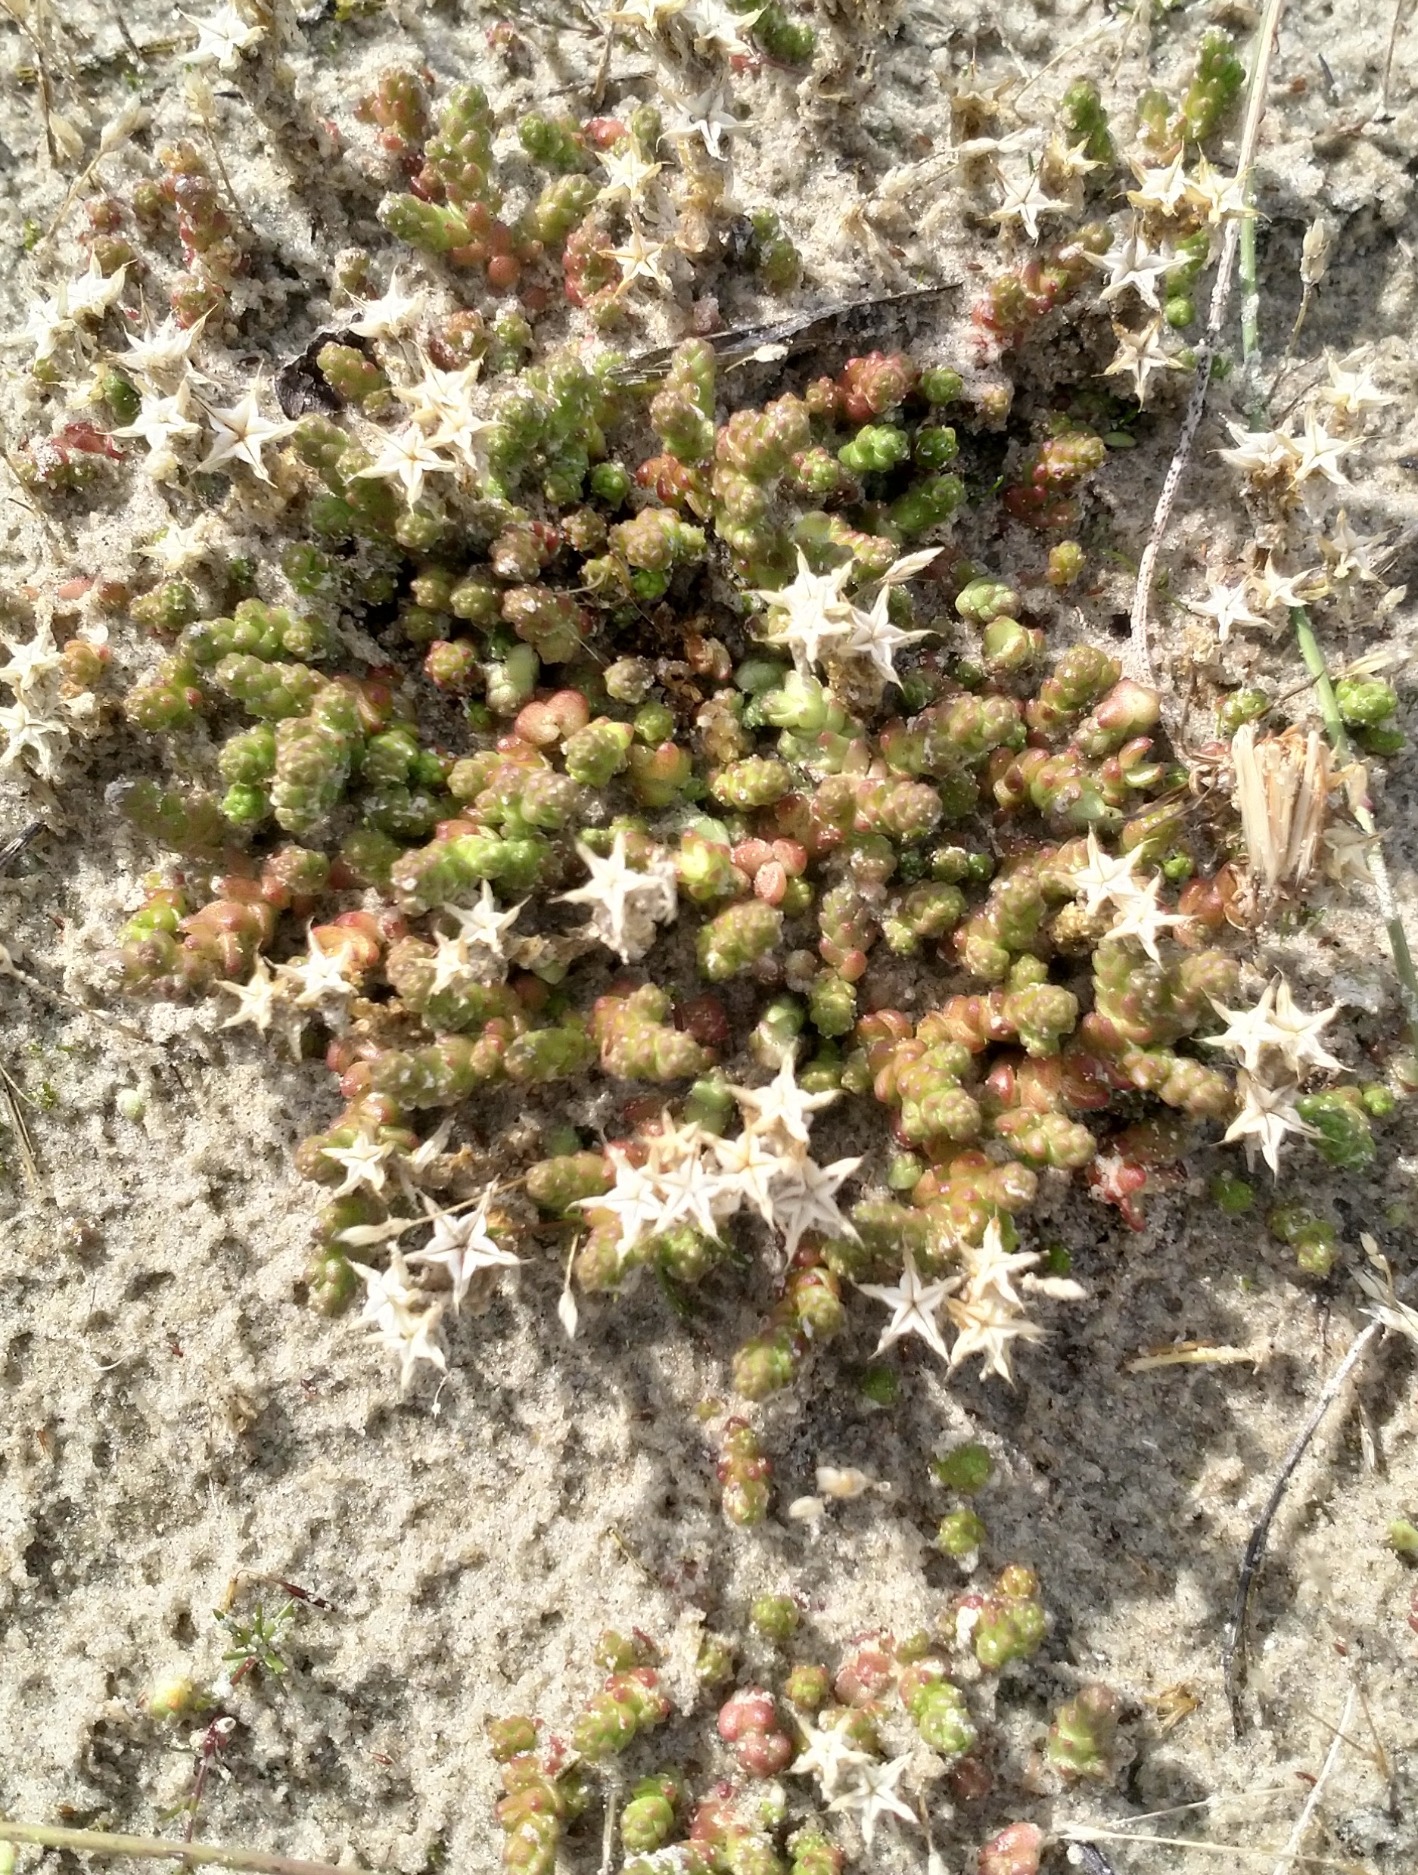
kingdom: Plantae
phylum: Tracheophyta
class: Magnoliopsida
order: Saxifragales
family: Crassulaceae
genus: Sedum
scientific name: Sedum acre
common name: Bidende stenurt
